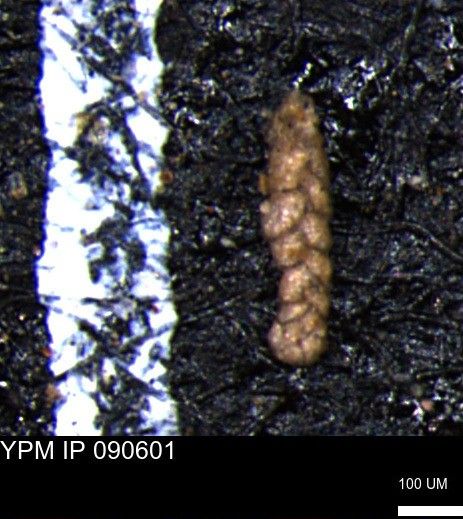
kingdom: Chromista
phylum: Foraminifera
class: Globothalamea
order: Lituolida
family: Spiroplectamminidae
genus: Ammobaculoides
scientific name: Ammobaculoides phaulus
